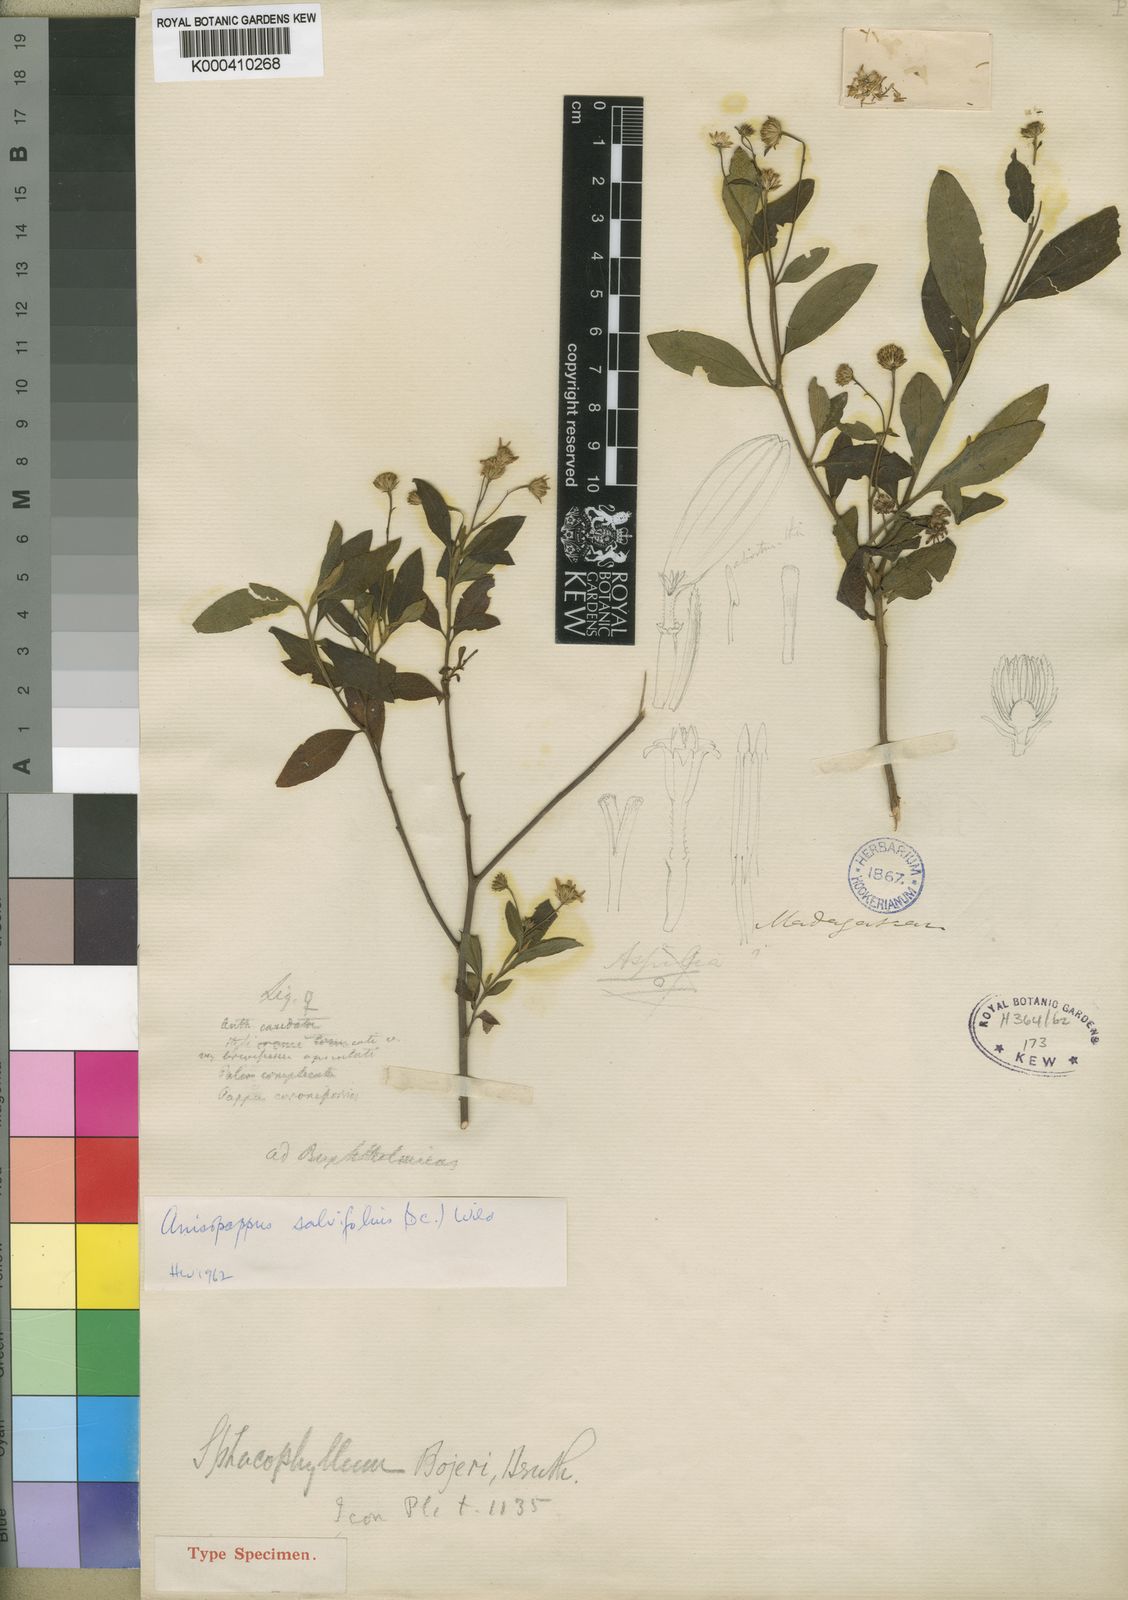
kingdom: Plantae
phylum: Tracheophyta
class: Magnoliopsida
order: Asterales
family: Asteraceae
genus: Anisopappus
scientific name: Anisopappus salviifolius
